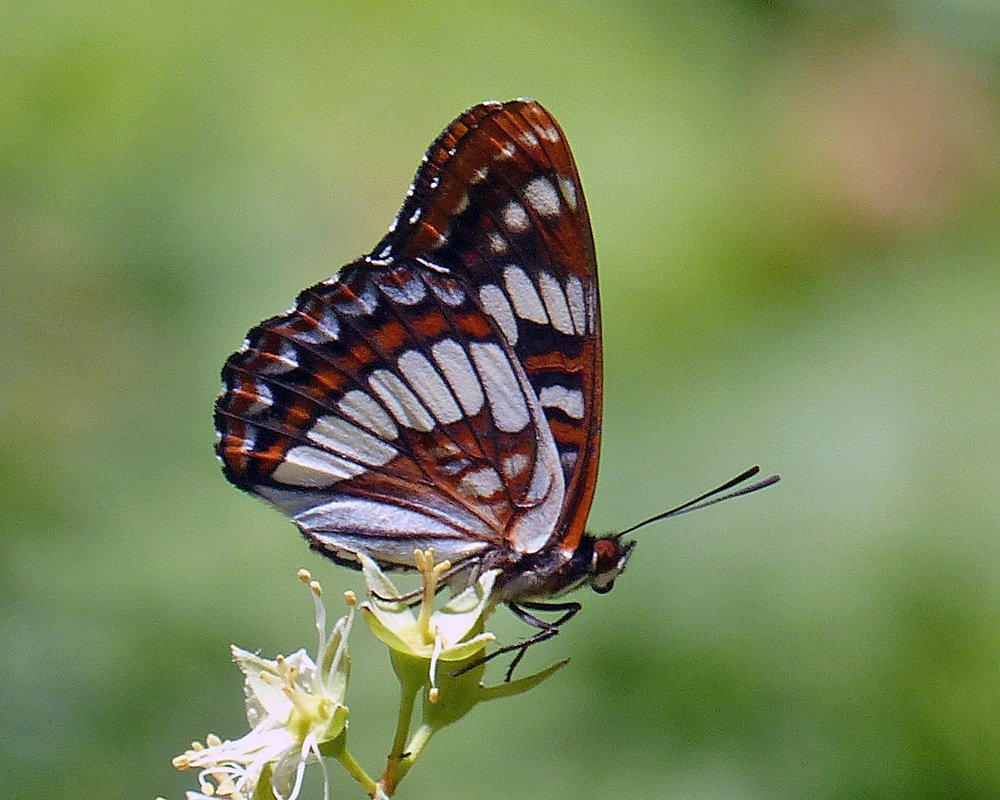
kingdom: Animalia
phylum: Arthropoda
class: Insecta
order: Lepidoptera
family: Nymphalidae
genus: Limenitis
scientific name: Limenitis lorquini
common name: Lorquin's Admiral
